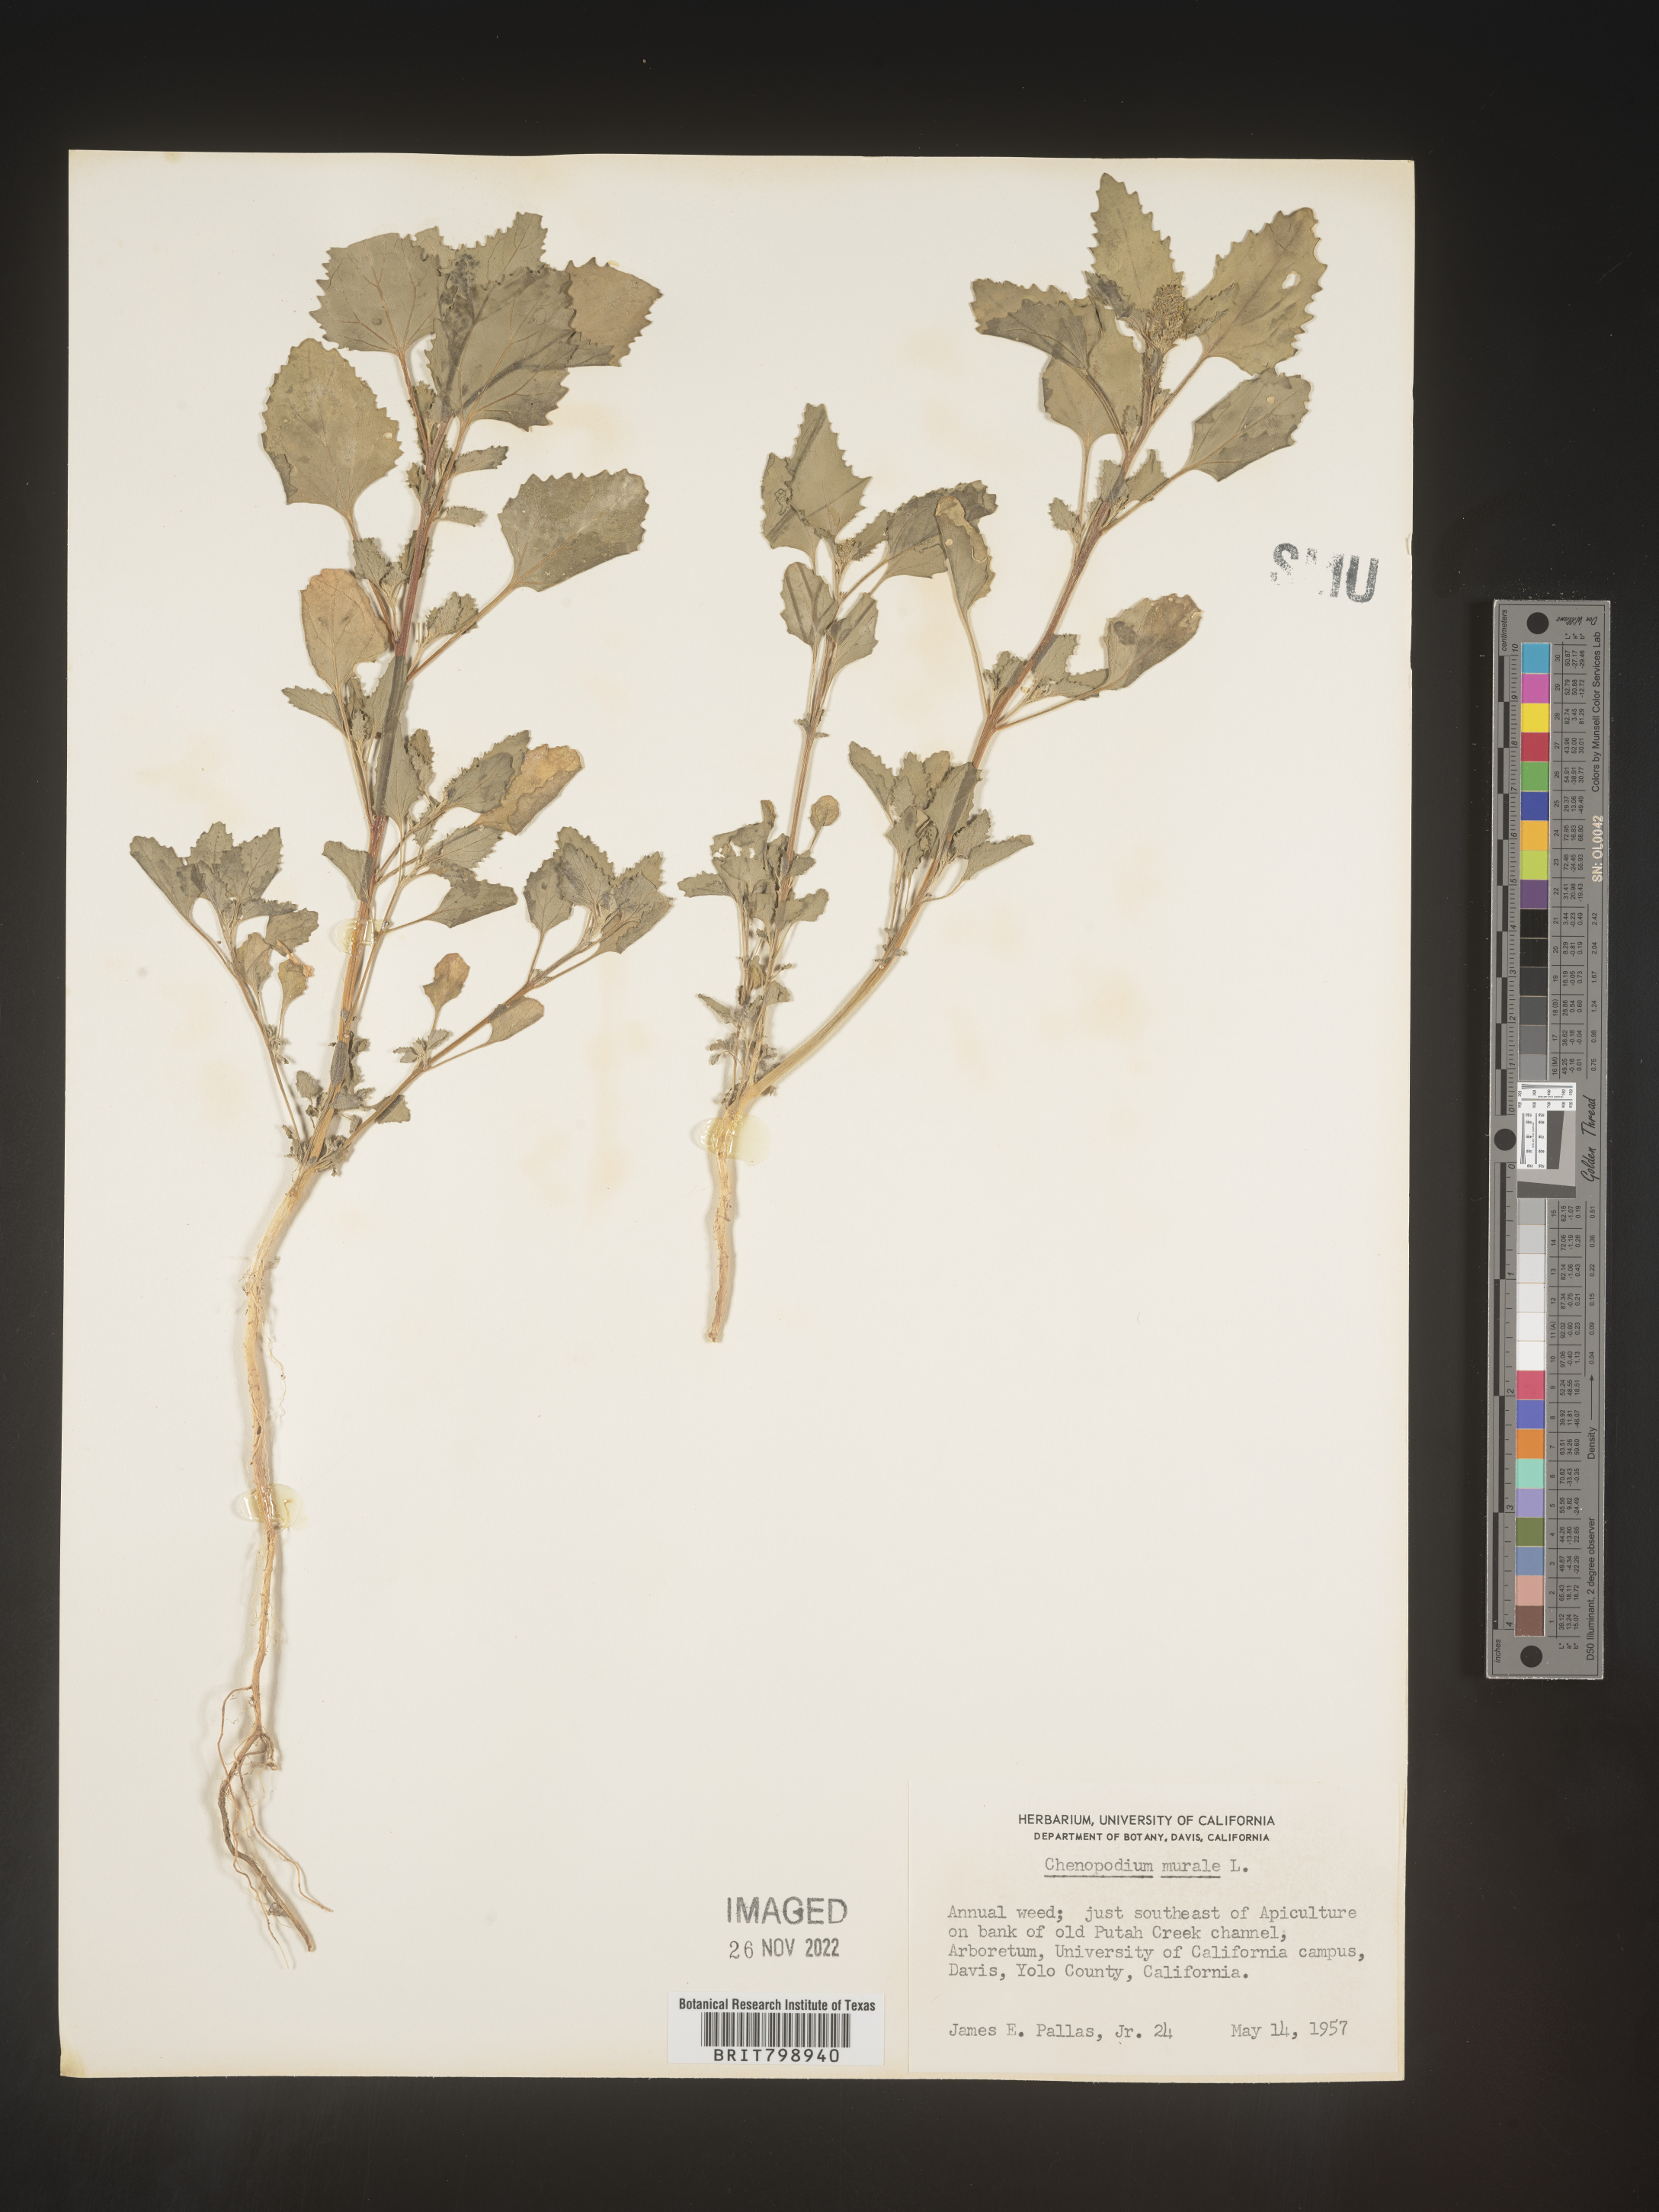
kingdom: Plantae
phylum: Tracheophyta
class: Magnoliopsida
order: Caryophyllales
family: Amaranthaceae
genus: Chenopodiastrum
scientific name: Chenopodiastrum murale
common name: Sowbane
